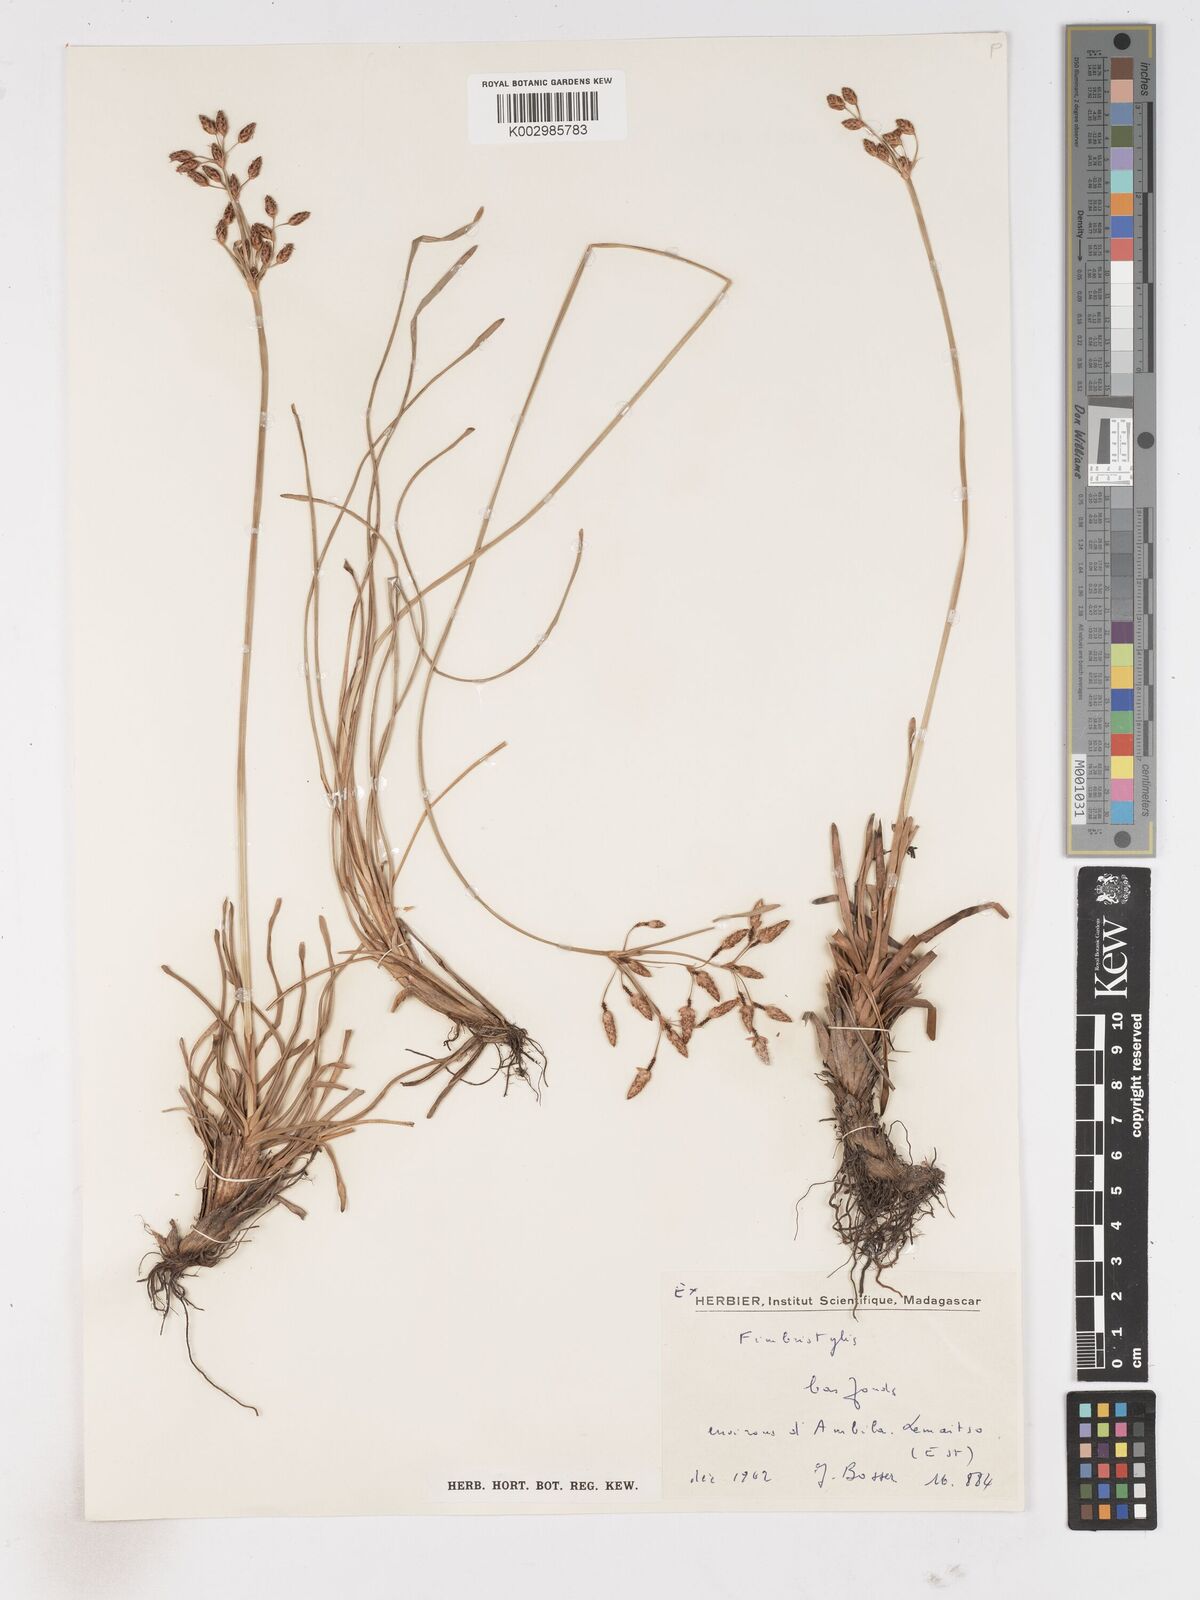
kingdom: Plantae
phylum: Tracheophyta
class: Liliopsida
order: Poales
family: Cyperaceae
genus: Fimbristylis
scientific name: Fimbristylis
